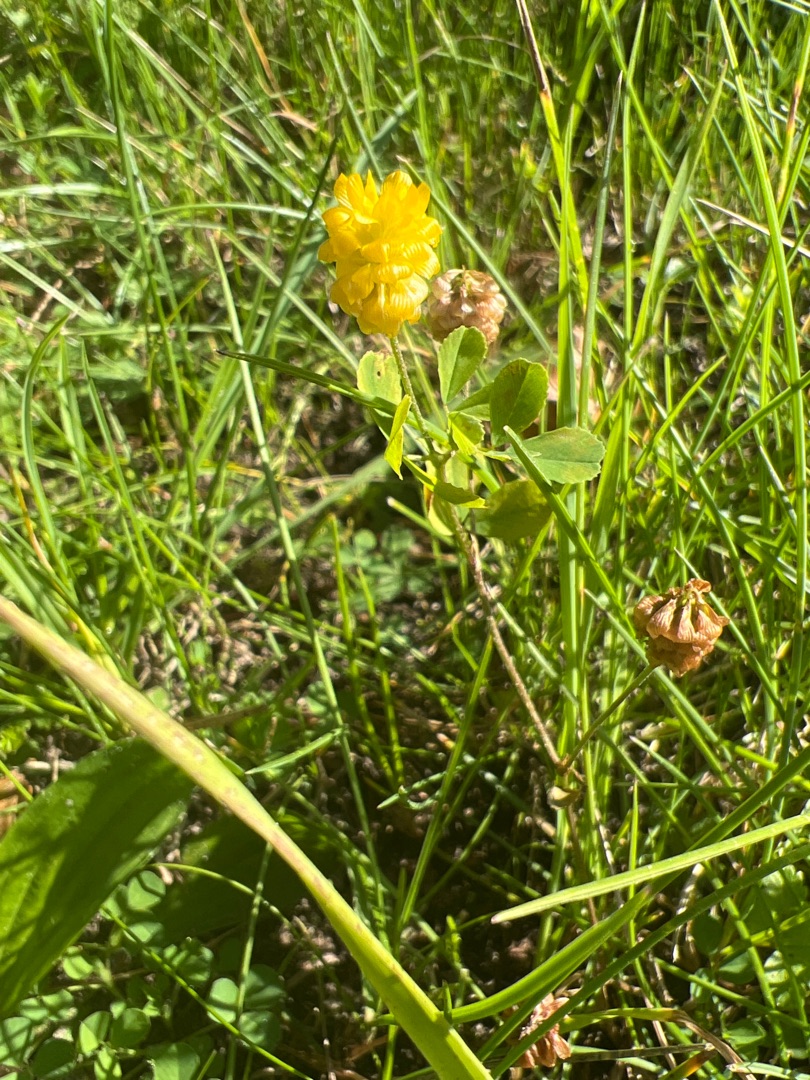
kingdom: Plantae
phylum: Tracheophyta
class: Magnoliopsida
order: Fabales
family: Fabaceae
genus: Trifolium
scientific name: Trifolium campestre
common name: Gul kløver
